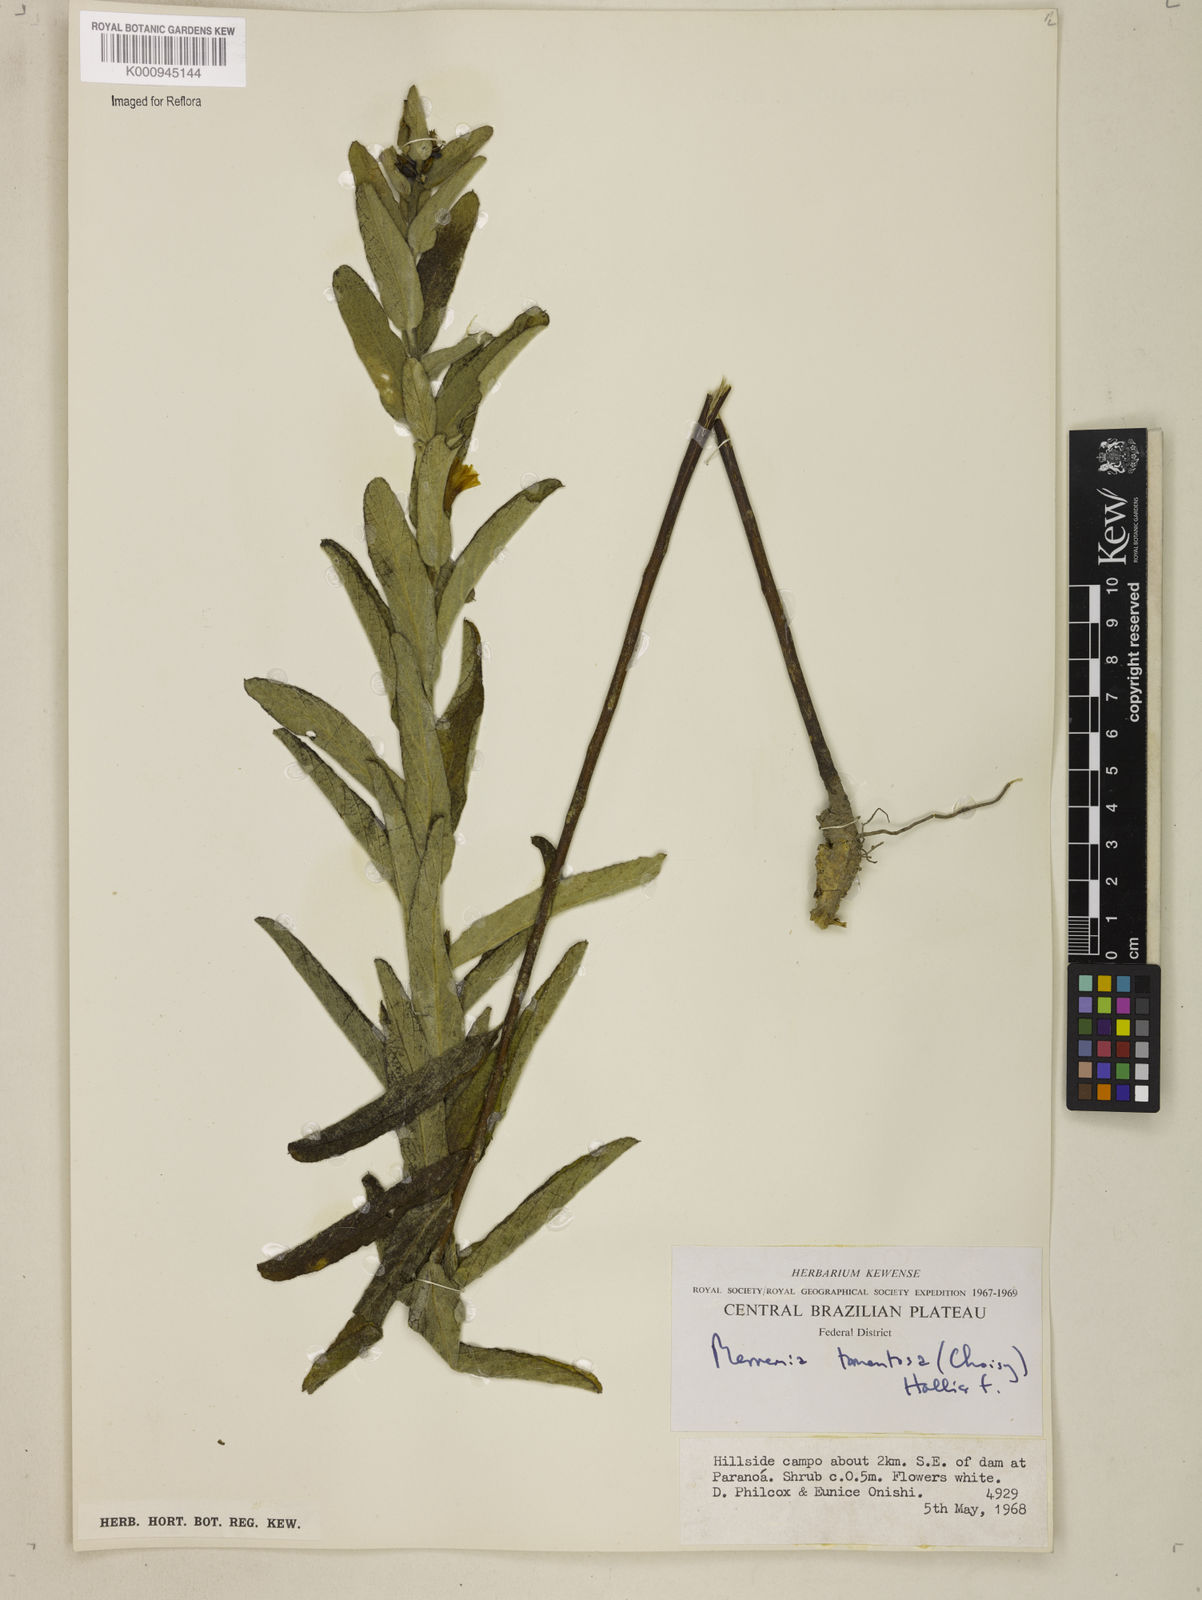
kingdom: Plantae
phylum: Tracheophyta
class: Magnoliopsida
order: Solanales
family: Convolvulaceae
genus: Distimake
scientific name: Distimake tomentosus
